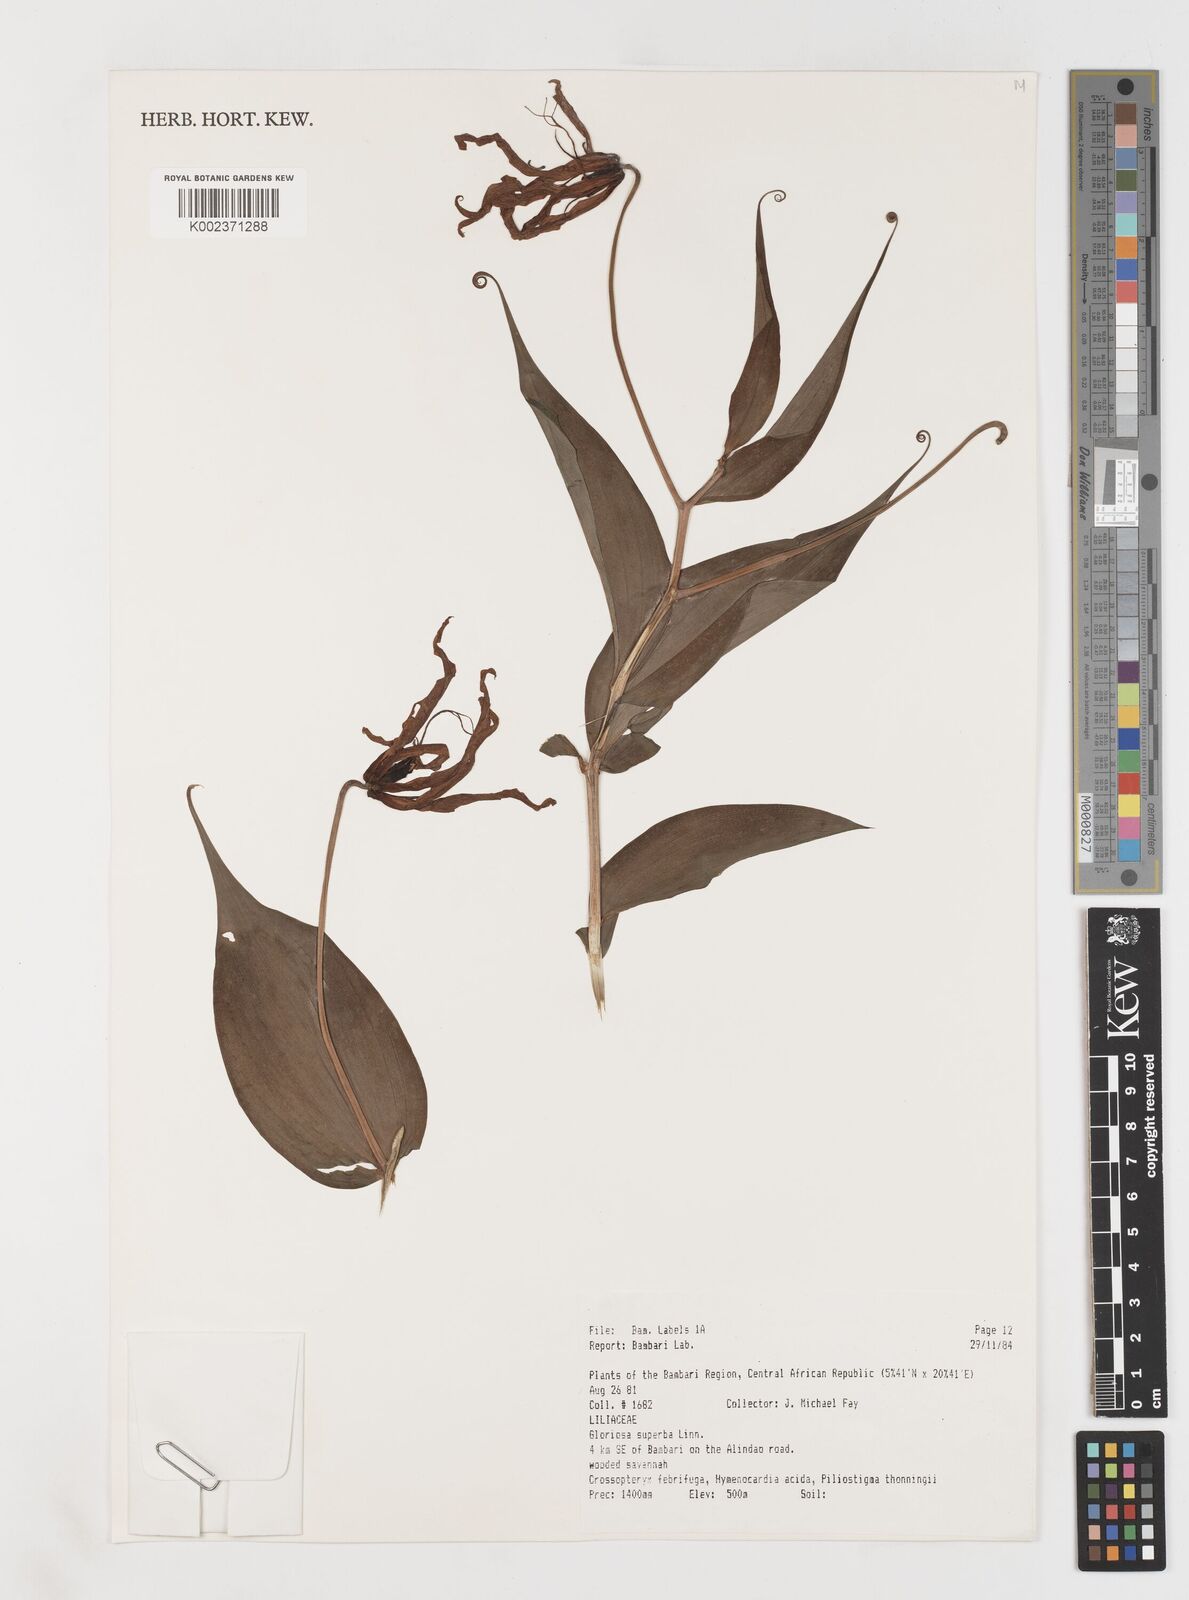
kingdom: Plantae
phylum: Tracheophyta
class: Liliopsida
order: Liliales
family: Colchicaceae
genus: Gloriosa
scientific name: Gloriosa simplex
